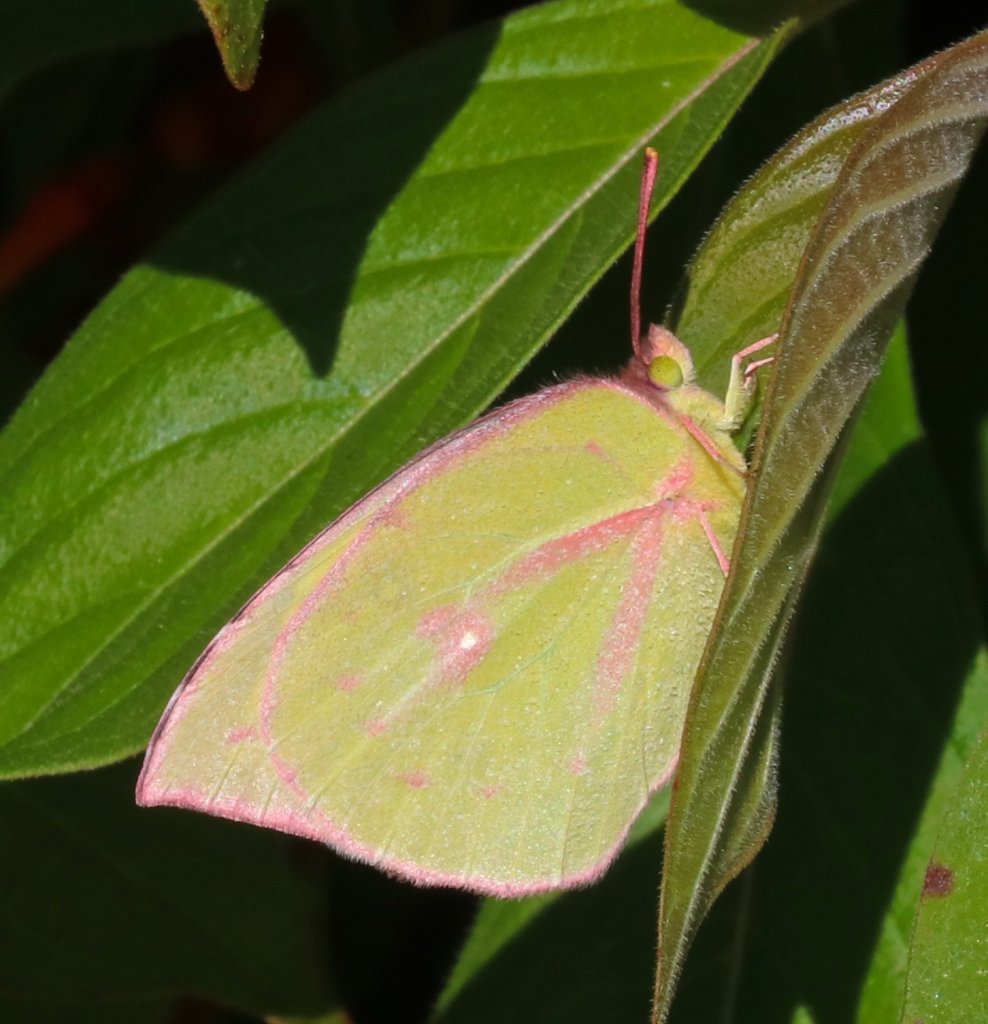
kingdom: Animalia
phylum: Arthropoda
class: Insecta
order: Lepidoptera
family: Pieridae
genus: Zerene
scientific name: Zerene cesonia
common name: Southern Dogface
